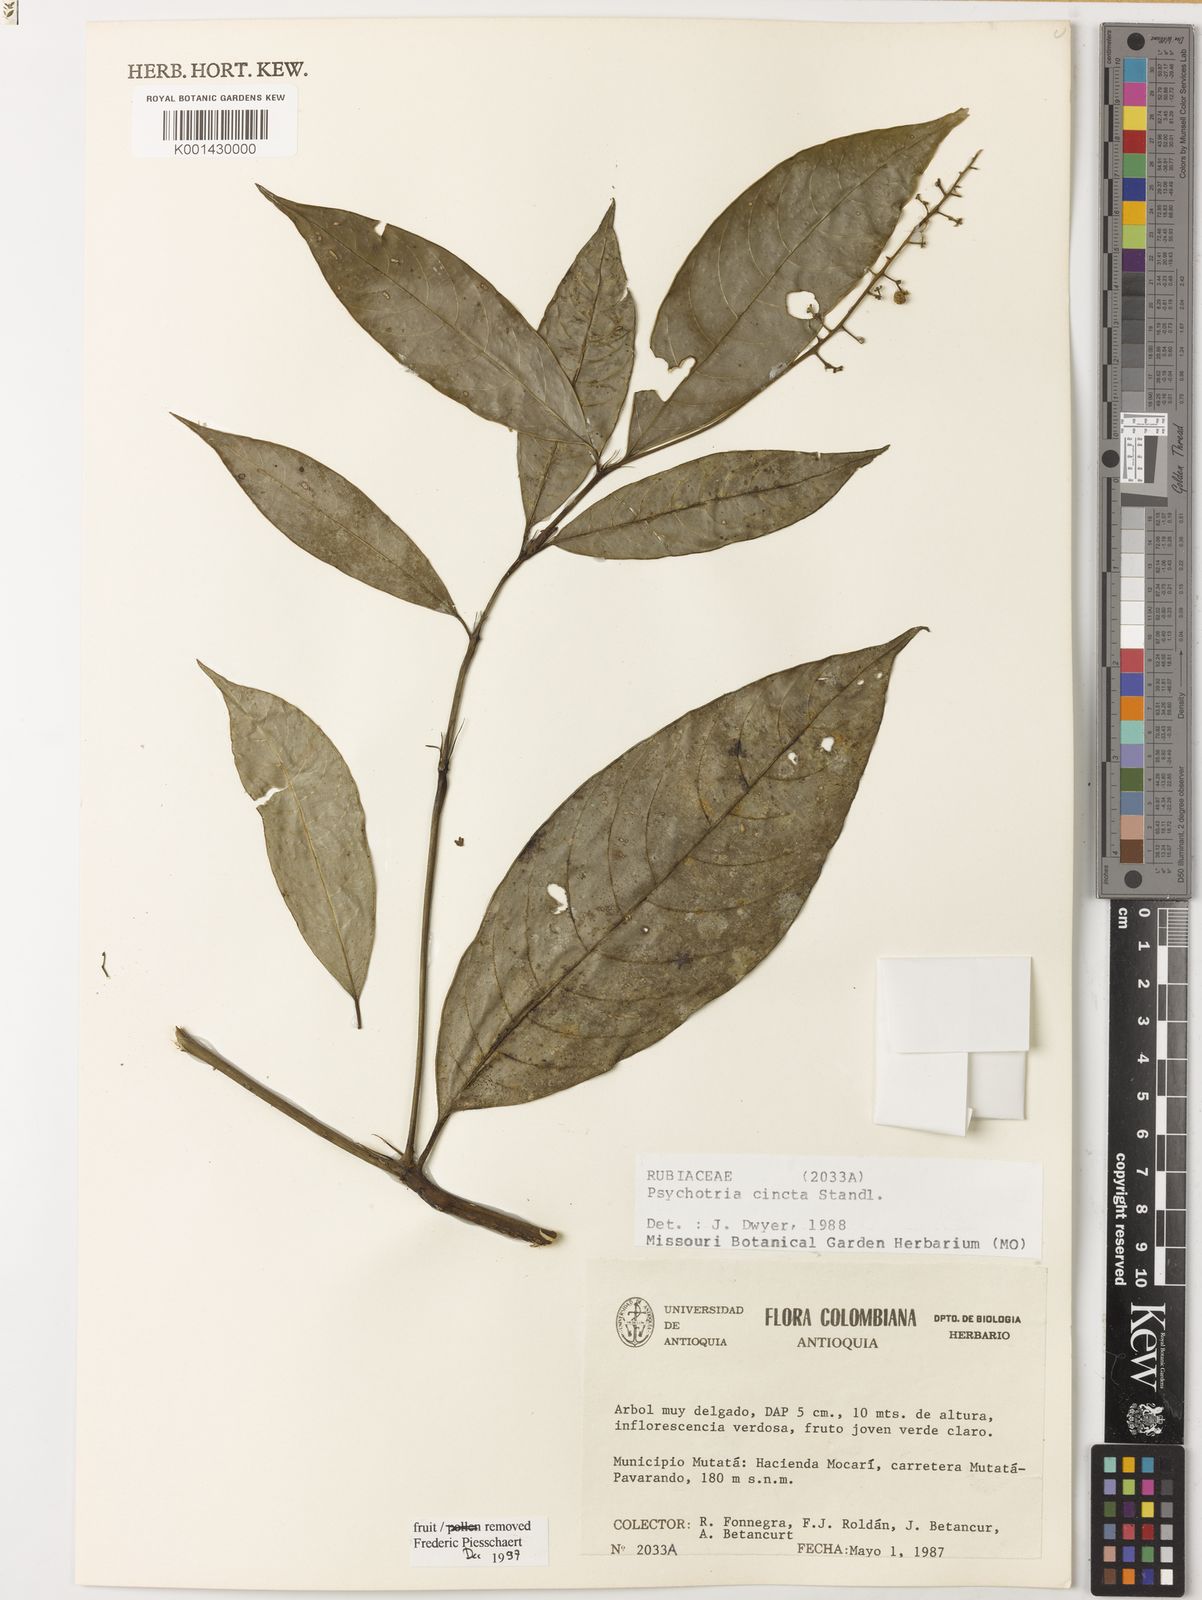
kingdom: Plantae
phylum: Tracheophyta
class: Magnoliopsida
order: Gentianales
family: Rubiaceae
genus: Palicourea
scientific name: Palicourea longicuspis
